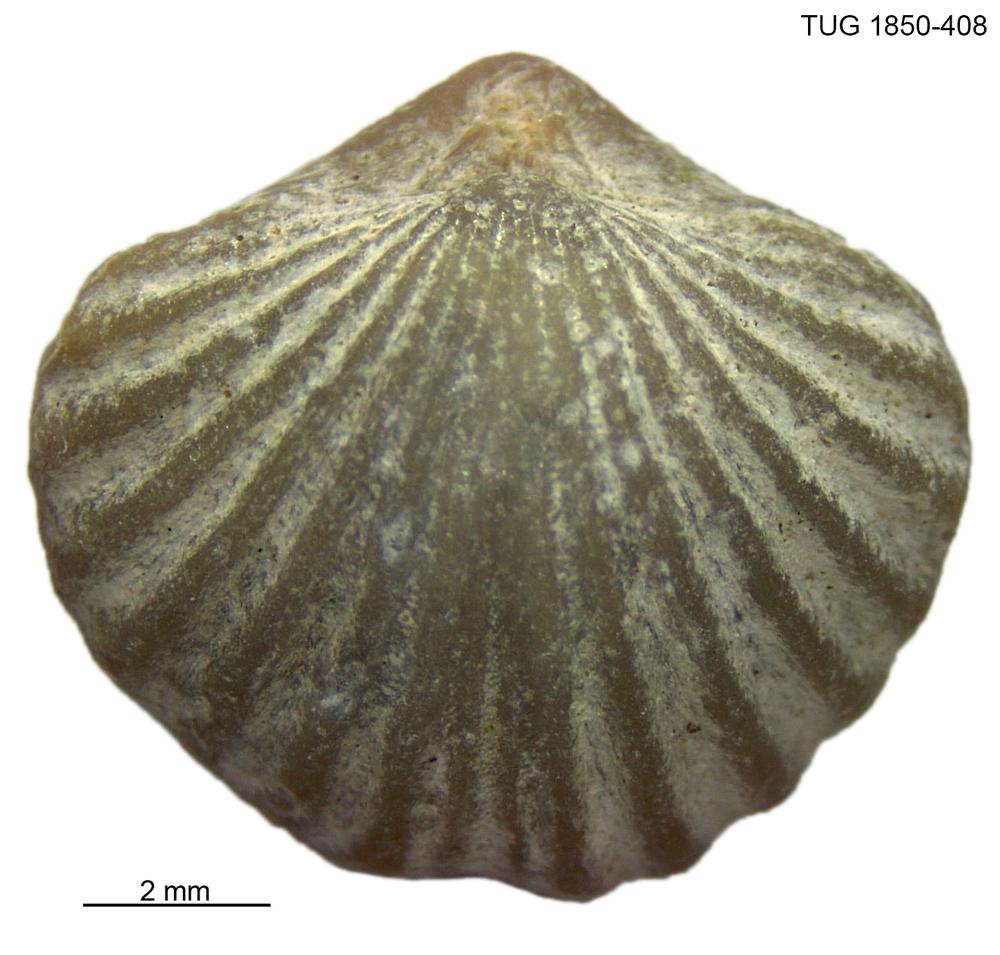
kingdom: Animalia
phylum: Brachiopoda
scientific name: Brachiopoda
